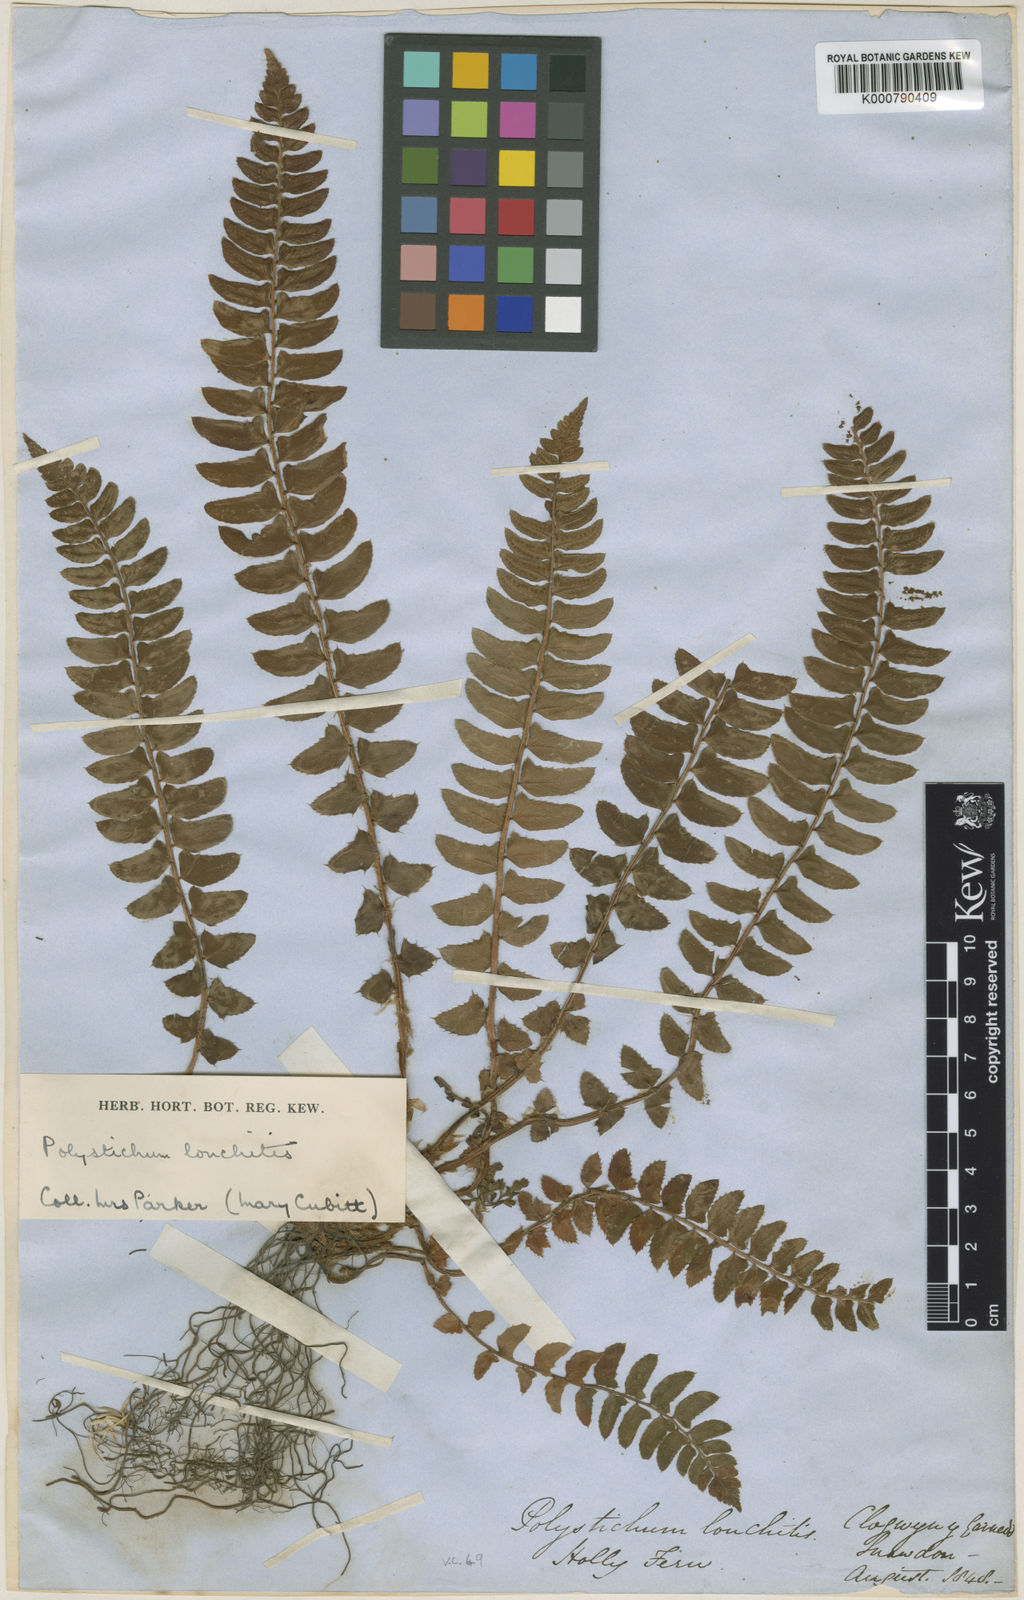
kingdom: Plantae
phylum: Tracheophyta
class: Polypodiopsida
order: Polypodiales
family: Dryopteridaceae
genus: Polystichum
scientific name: Polystichum
